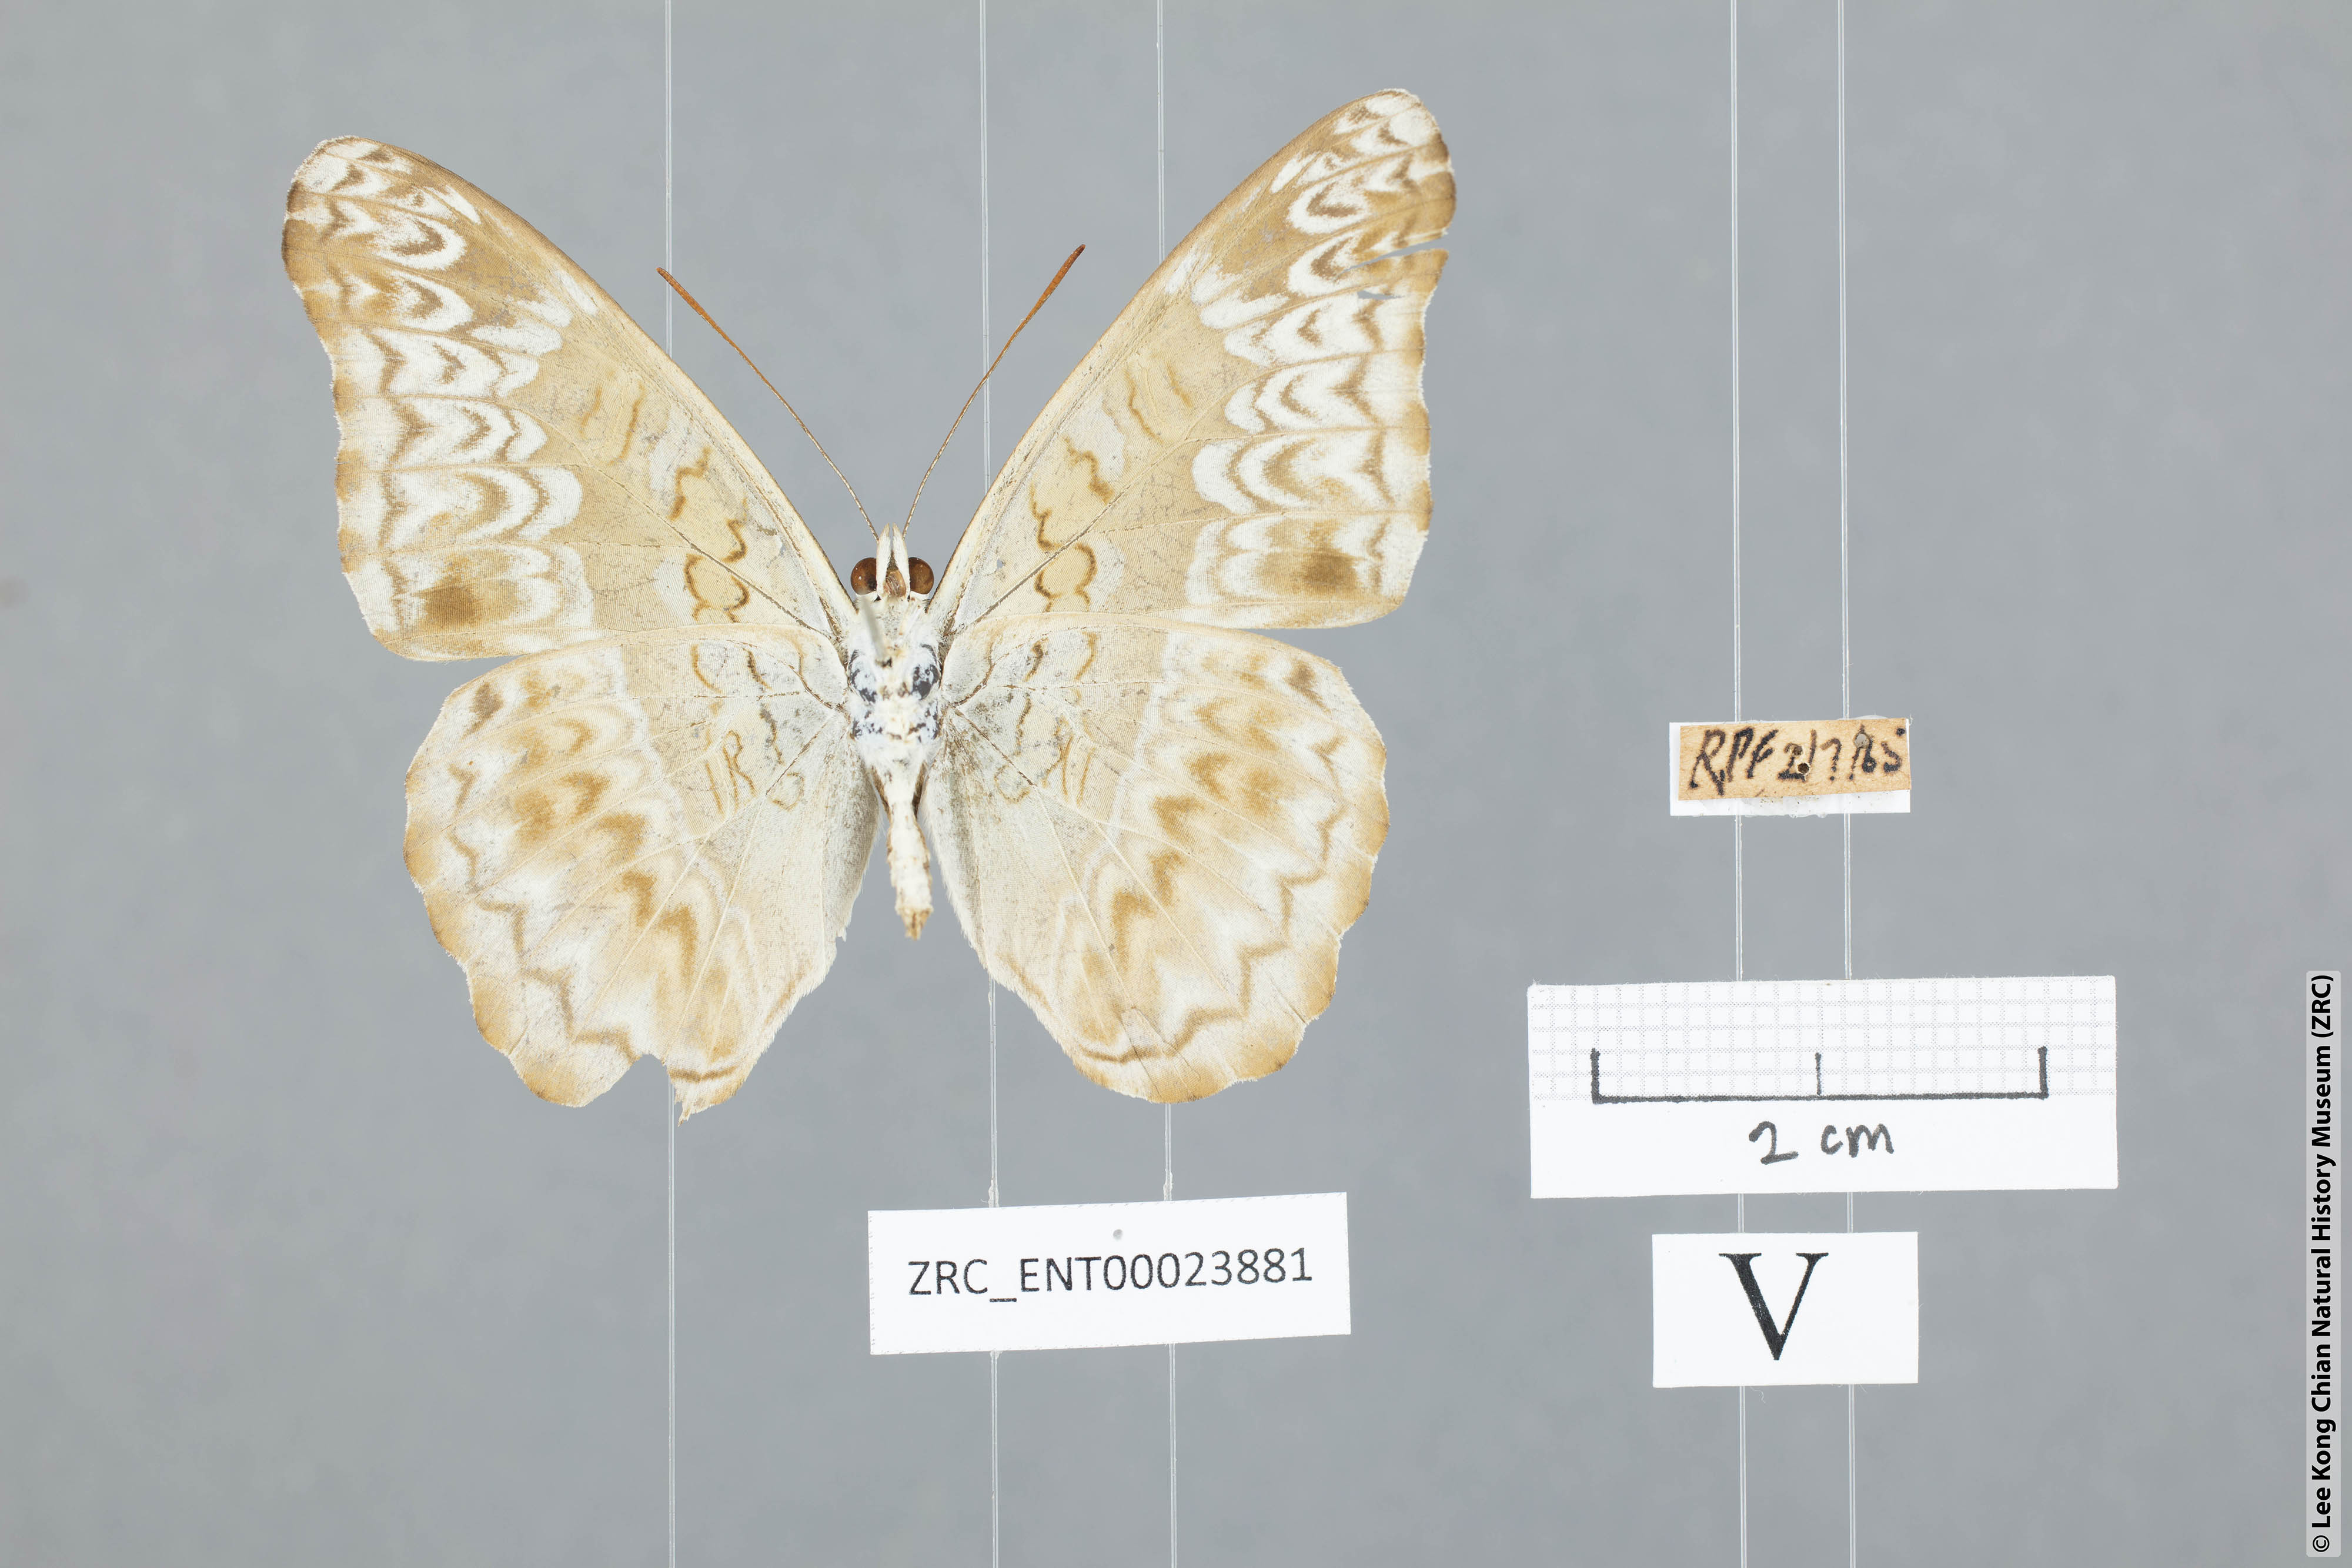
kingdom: Animalia
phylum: Arthropoda
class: Insecta
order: Lepidoptera
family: Nymphalidae
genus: Lebadea
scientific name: Lebadea martha
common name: Knight
